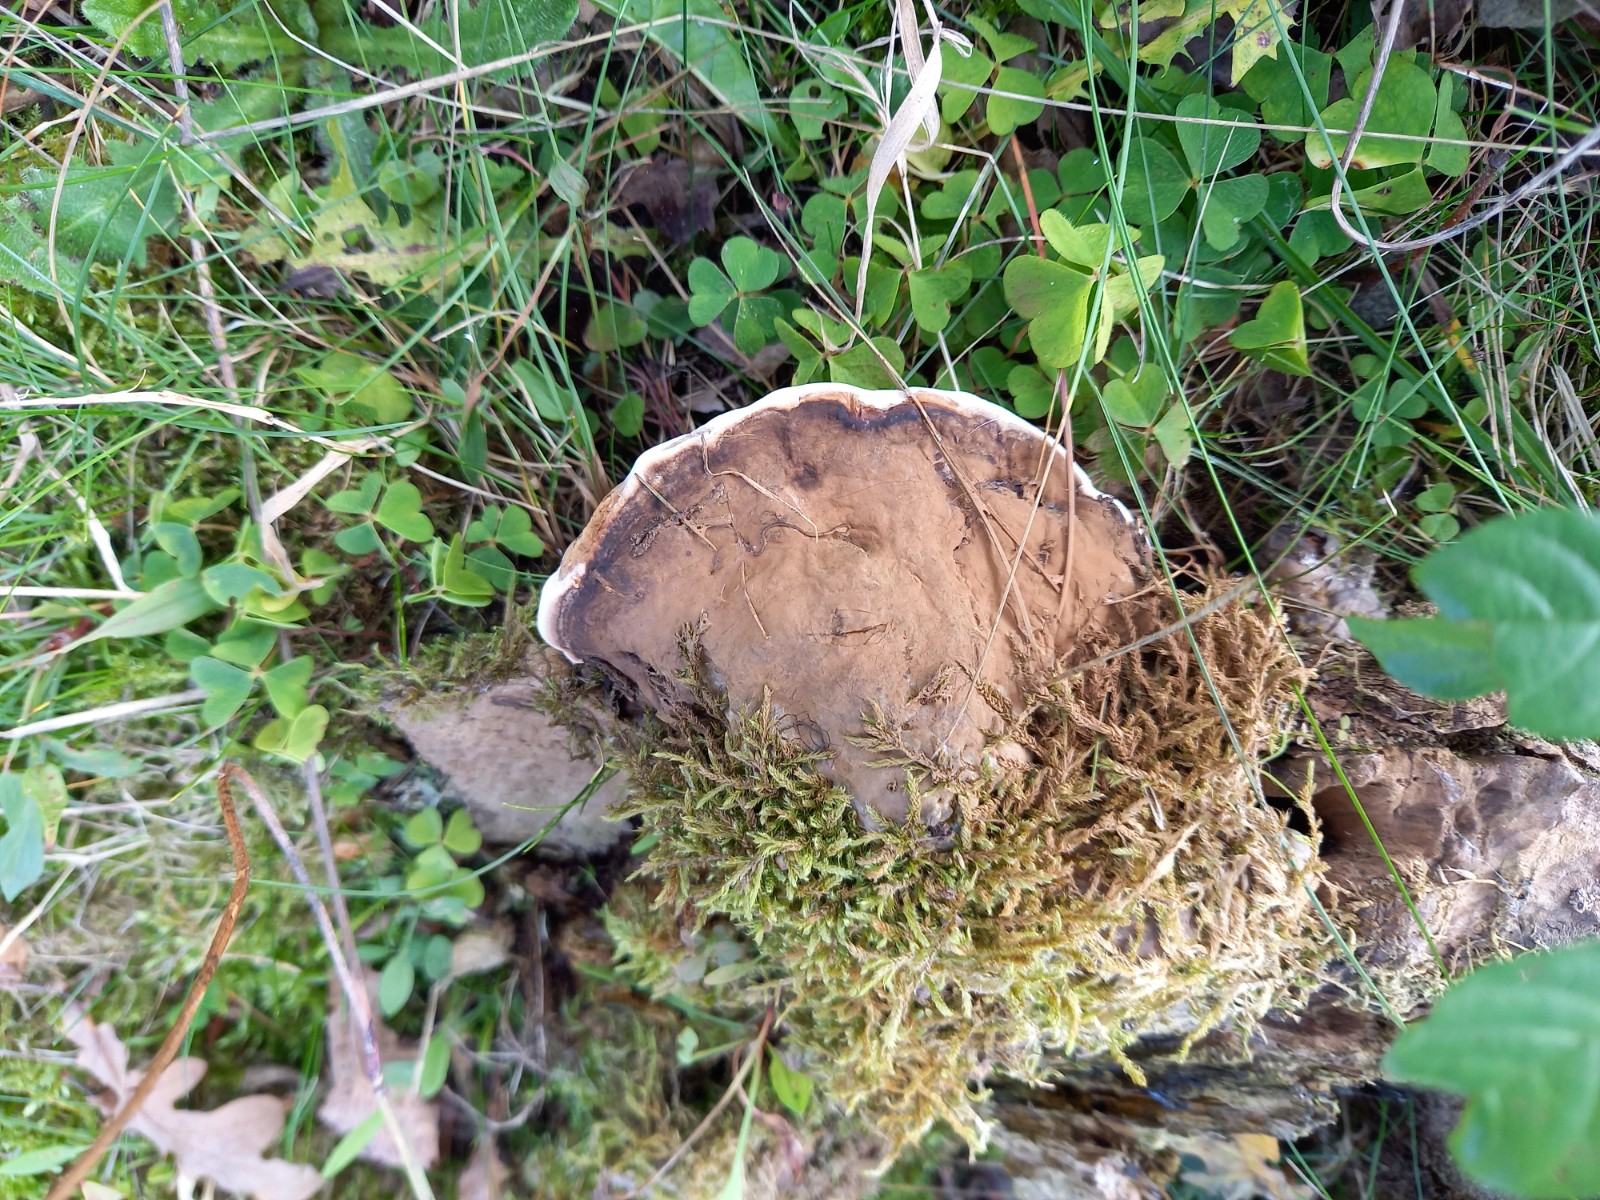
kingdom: Fungi
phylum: Basidiomycota
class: Agaricomycetes
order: Polyporales
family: Polyporaceae
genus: Ganoderma
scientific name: Ganoderma applanatum
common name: flad lakporesvamp
